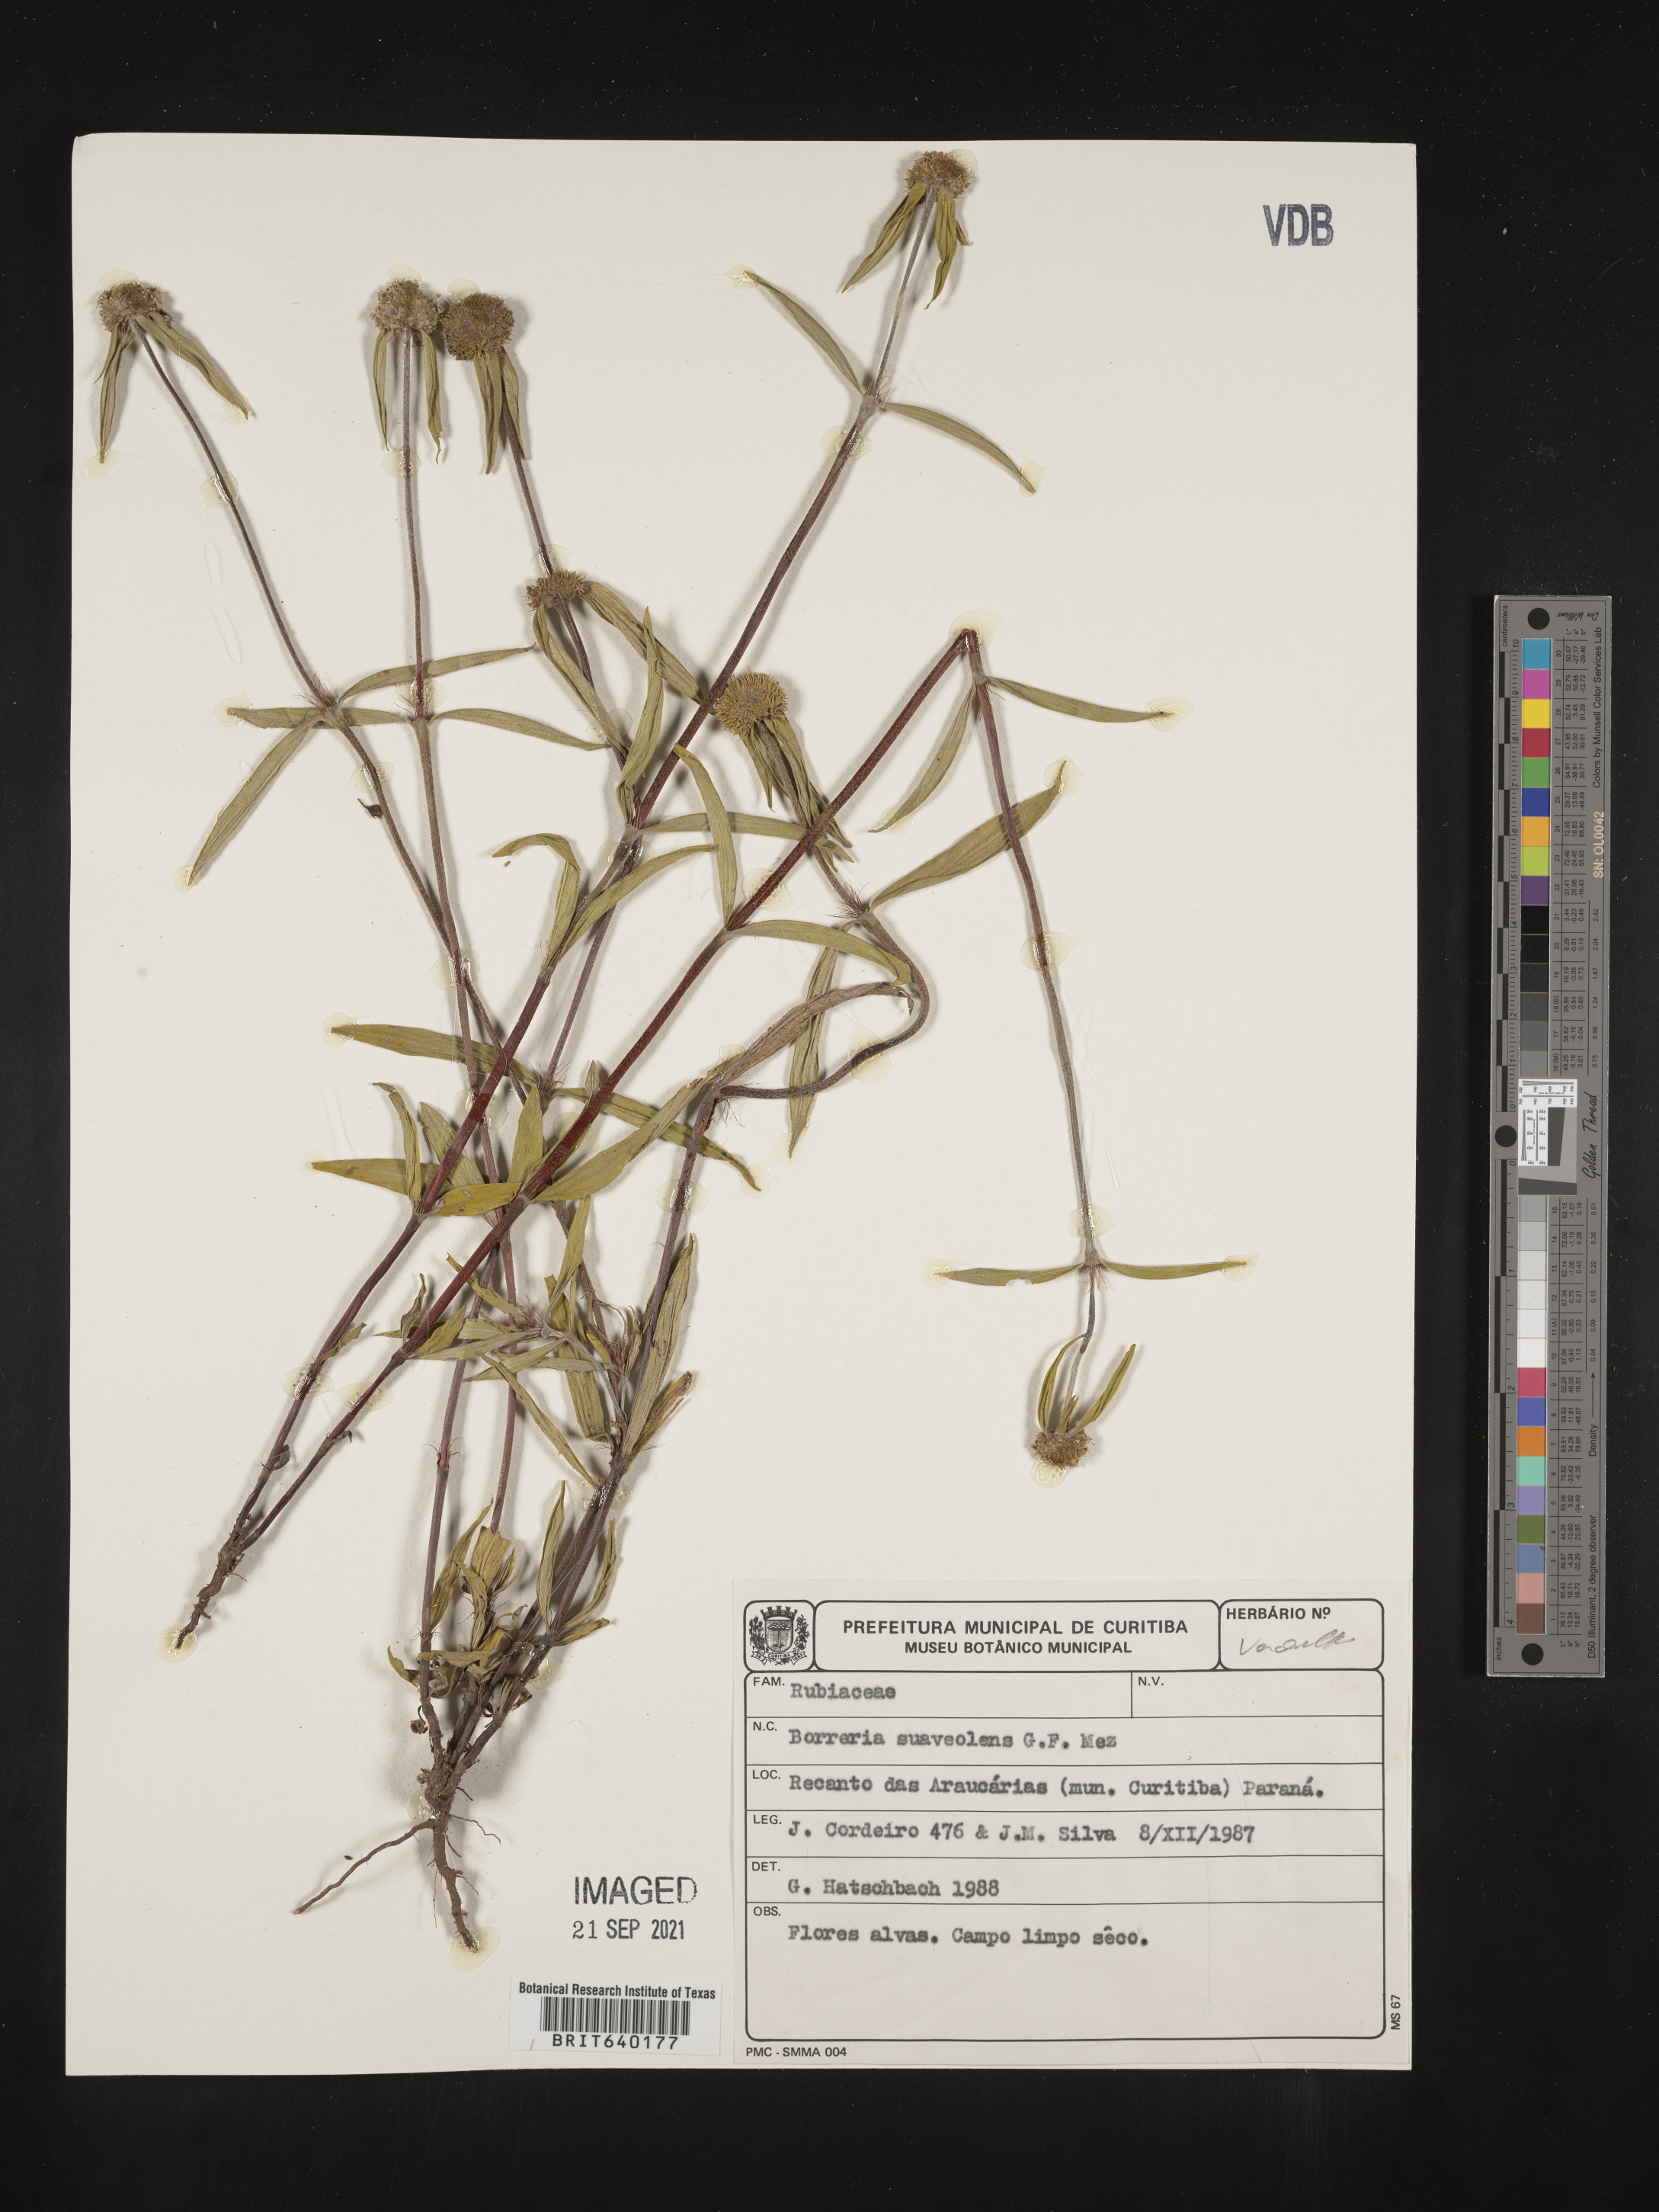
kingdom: Plantae
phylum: Tracheophyta
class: Magnoliopsida
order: Gentianales
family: Rubiaceae
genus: Spermacoce
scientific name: Spermacoce
